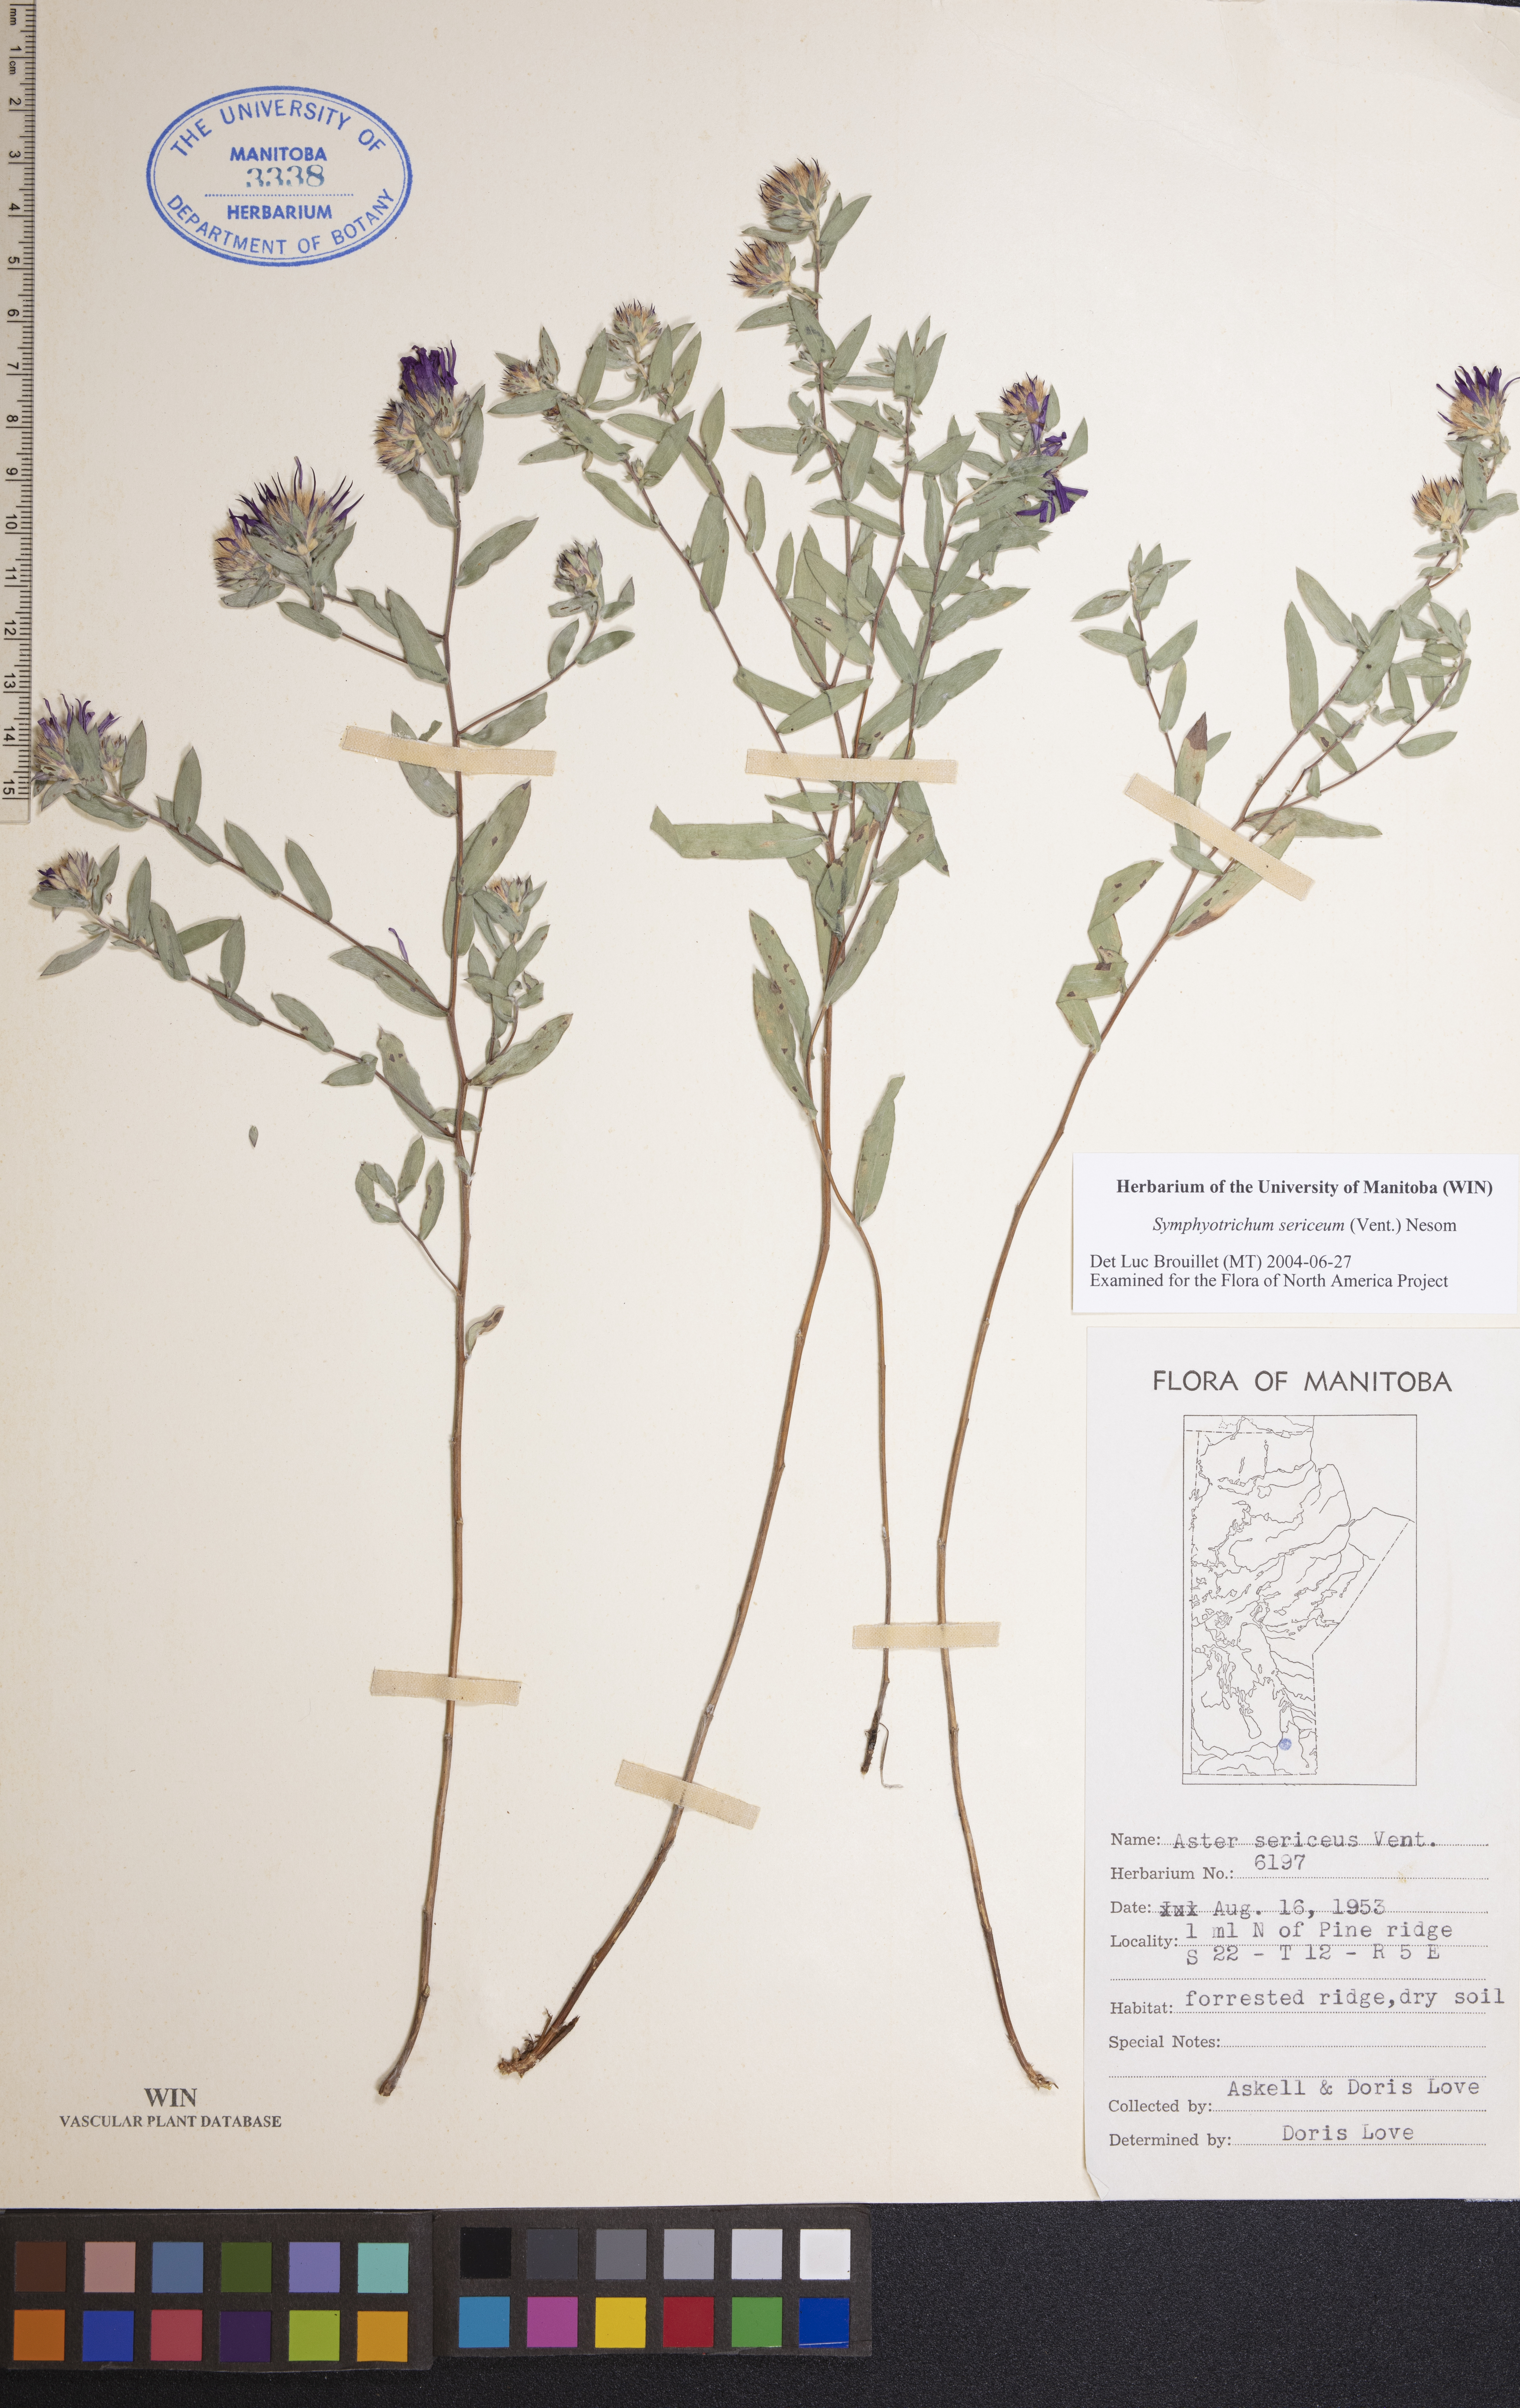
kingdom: Plantae
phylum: Tracheophyta
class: Magnoliopsida
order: Asterales
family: Asteraceae
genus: Symphyotrichum
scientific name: Symphyotrichum sericeum
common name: Silky aster
